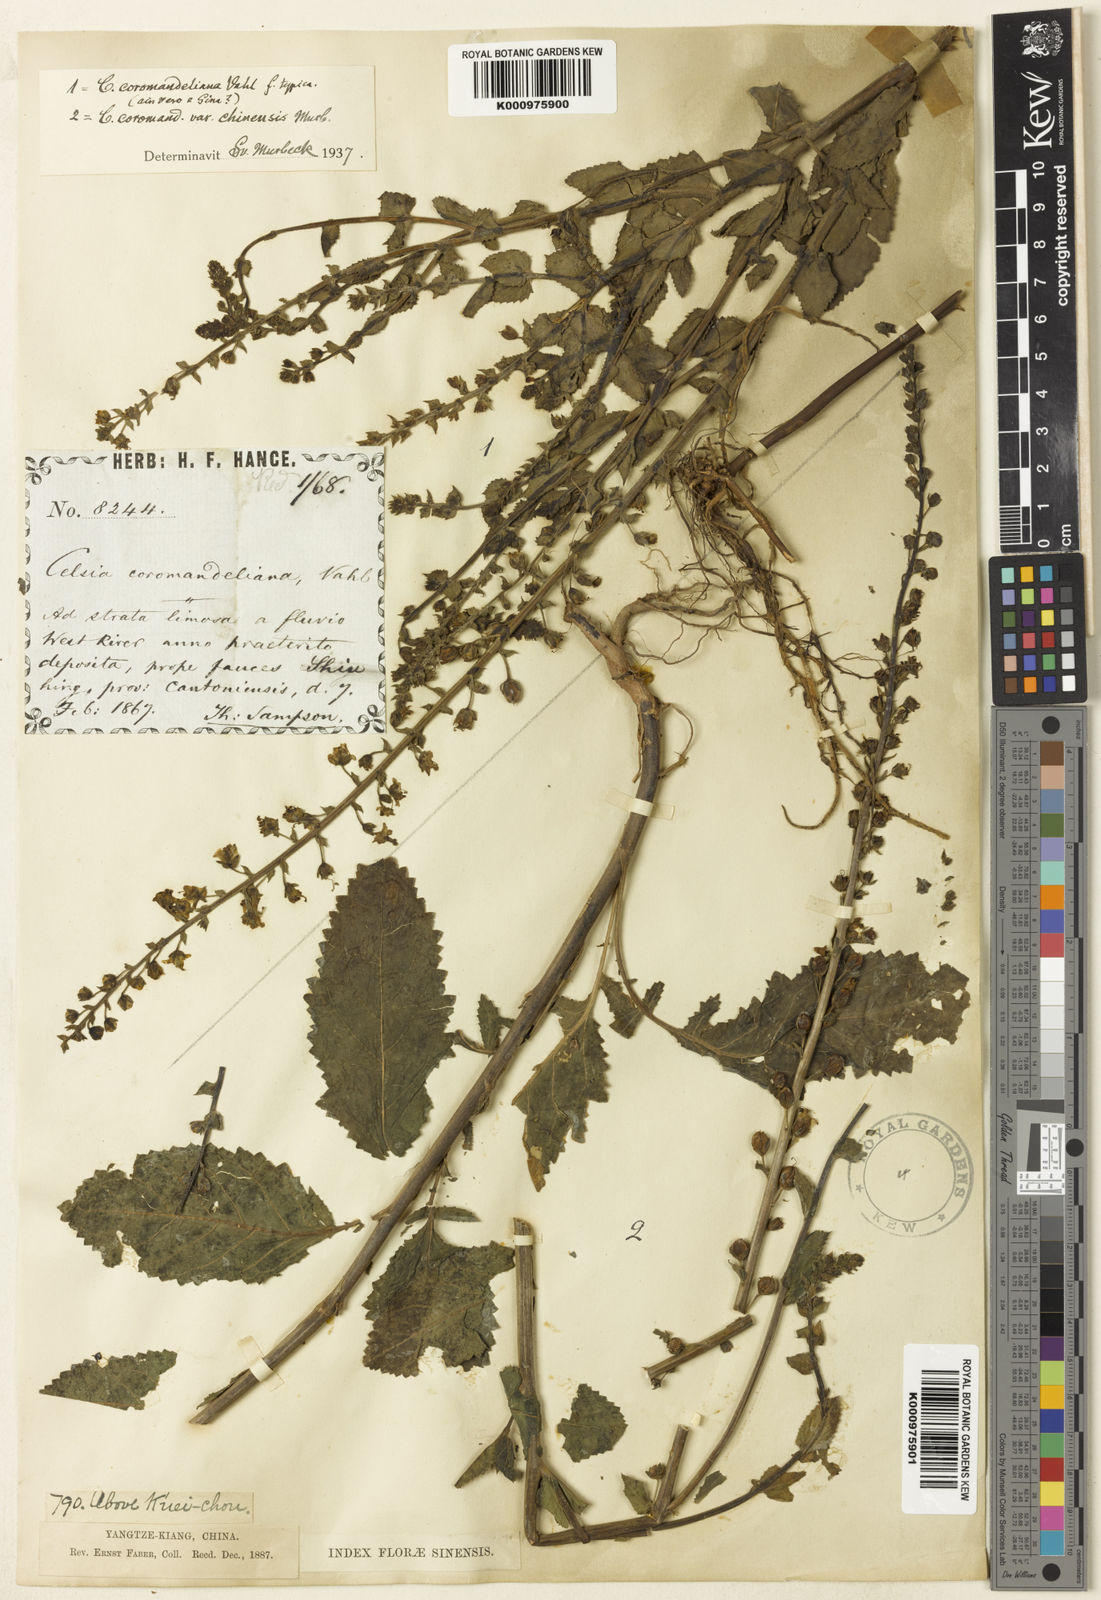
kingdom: Plantae
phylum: Tracheophyta
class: Magnoliopsida
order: Lamiales
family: Scrophulariaceae
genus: Verbascum
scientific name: Verbascum lyprocarpum
